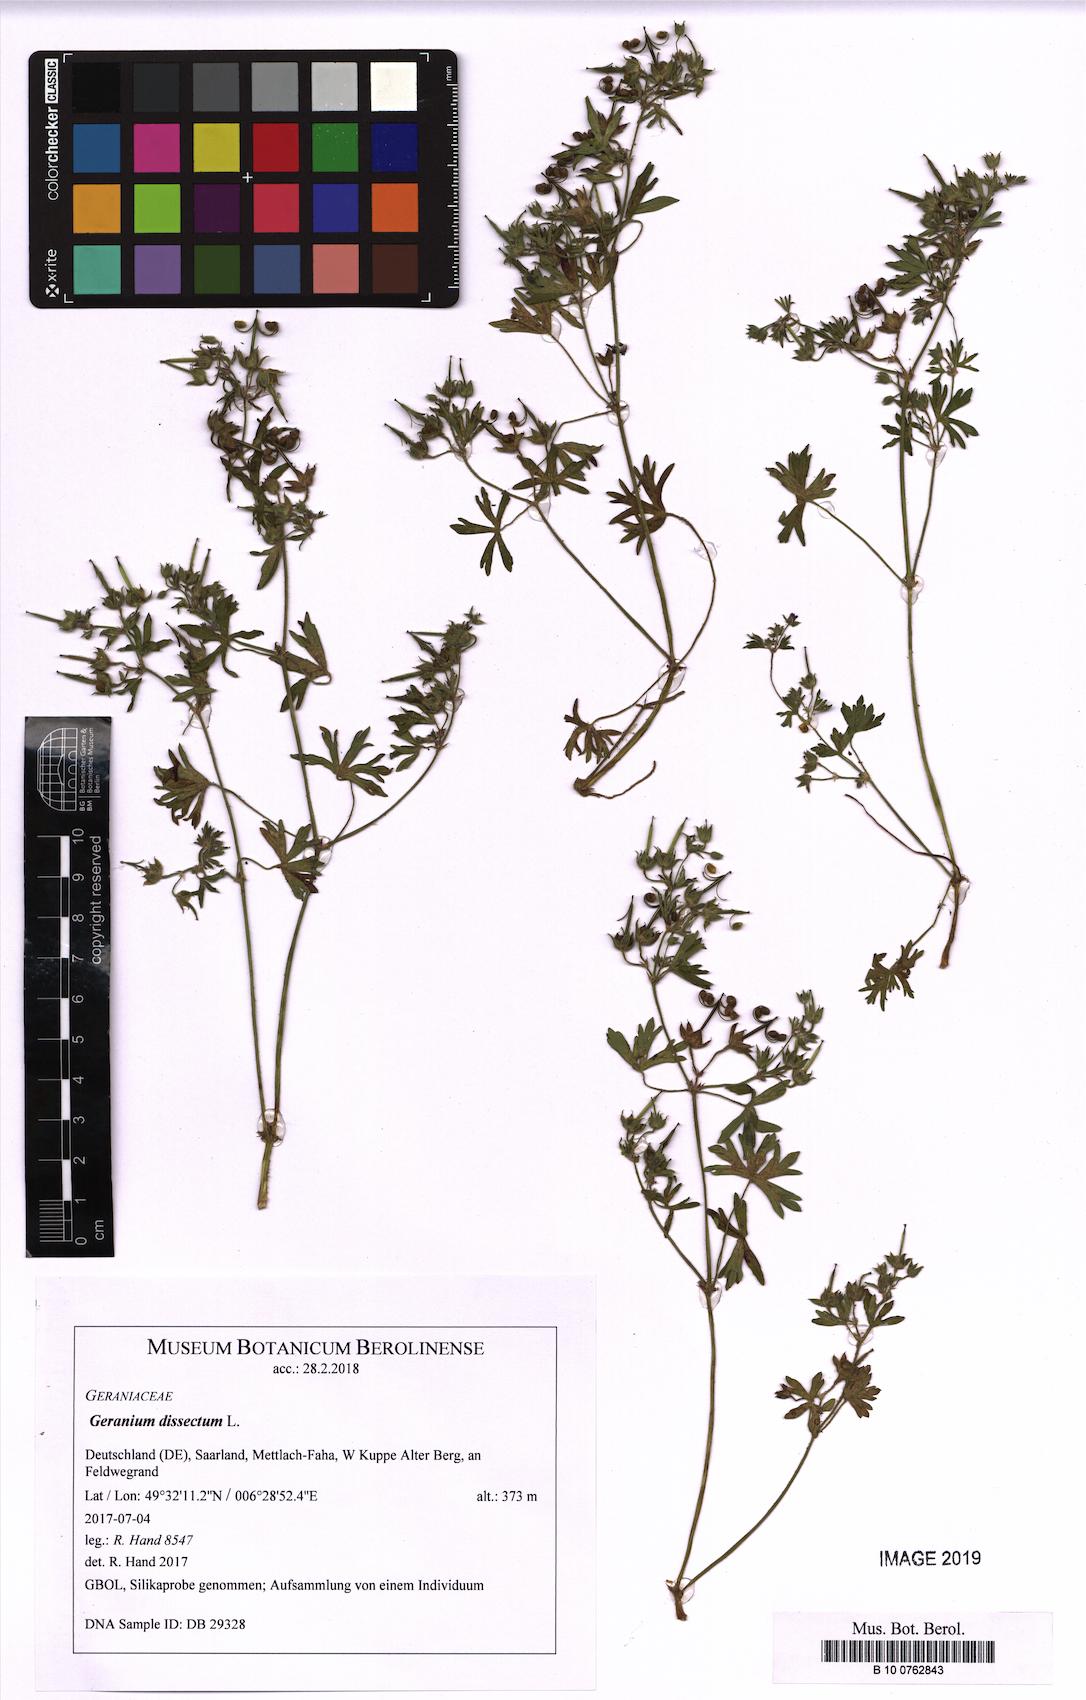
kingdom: Plantae
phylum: Tracheophyta
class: Magnoliopsida
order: Geraniales
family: Geraniaceae
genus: Geranium
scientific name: Geranium dissectum
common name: Cut-leaved crane's-bill
